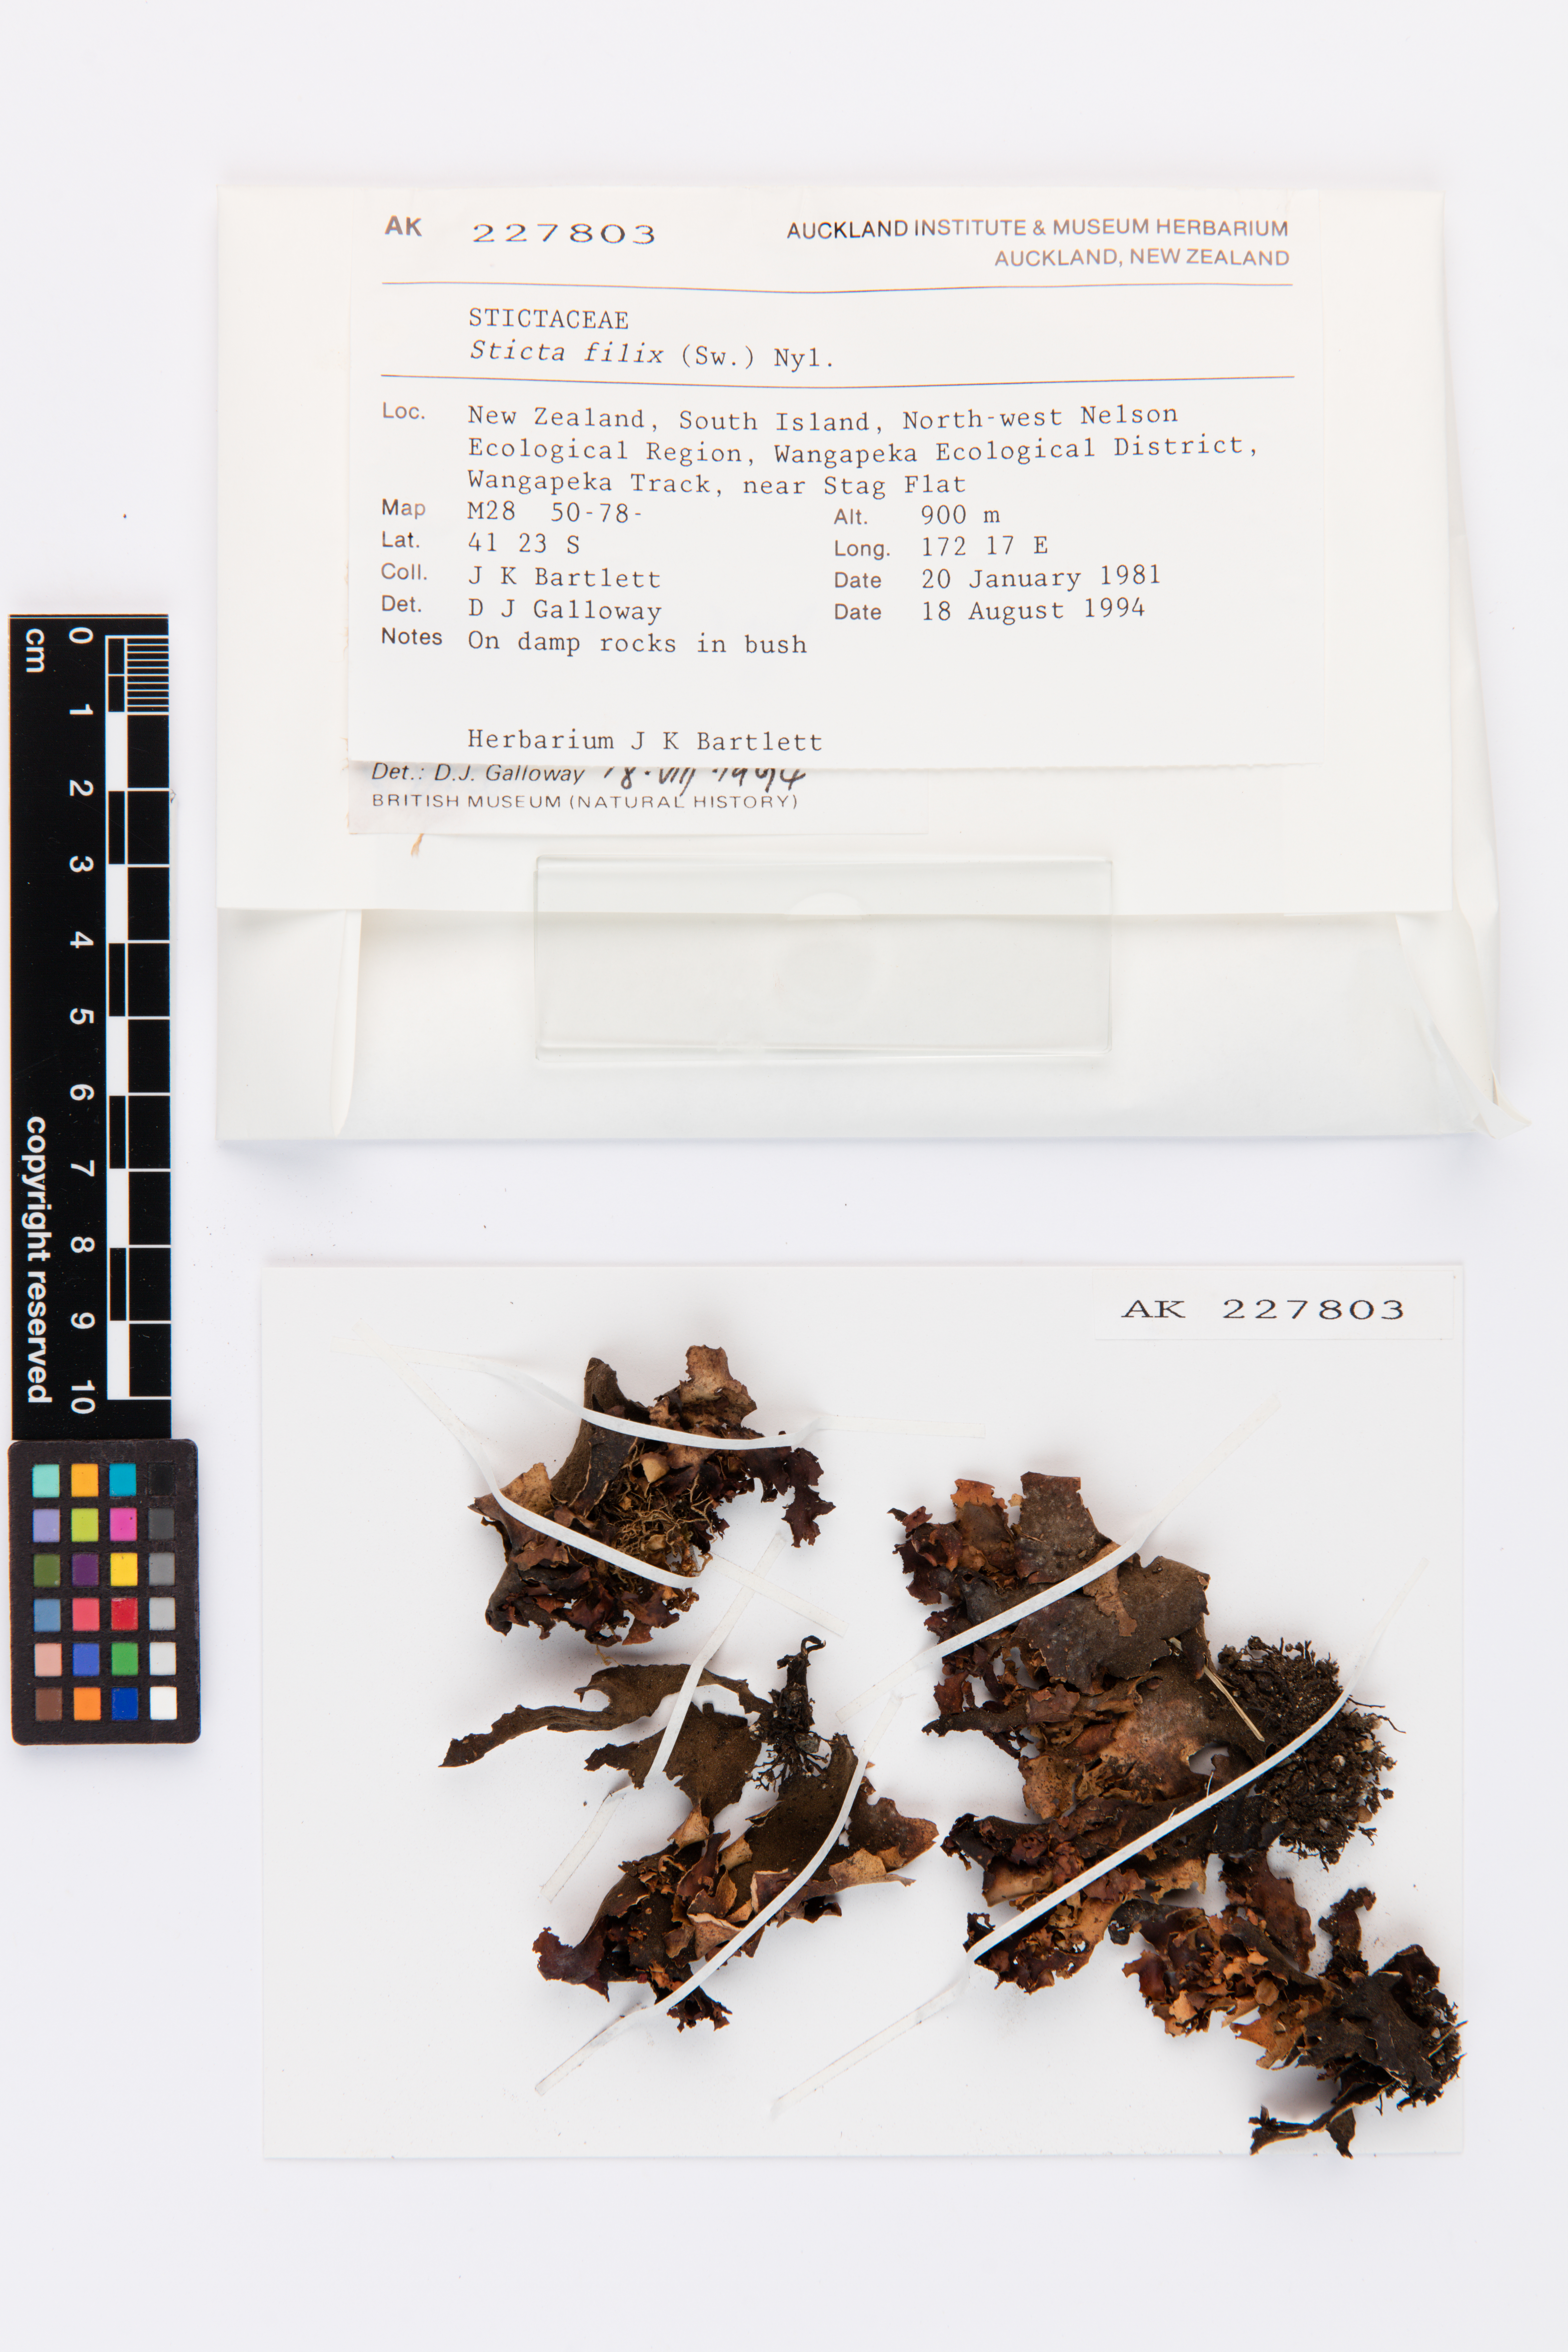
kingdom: Fungi
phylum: Ascomycota
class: Lecanoromycetes
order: Peltigerales
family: Lobariaceae
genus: Sticta
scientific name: Sticta filix
